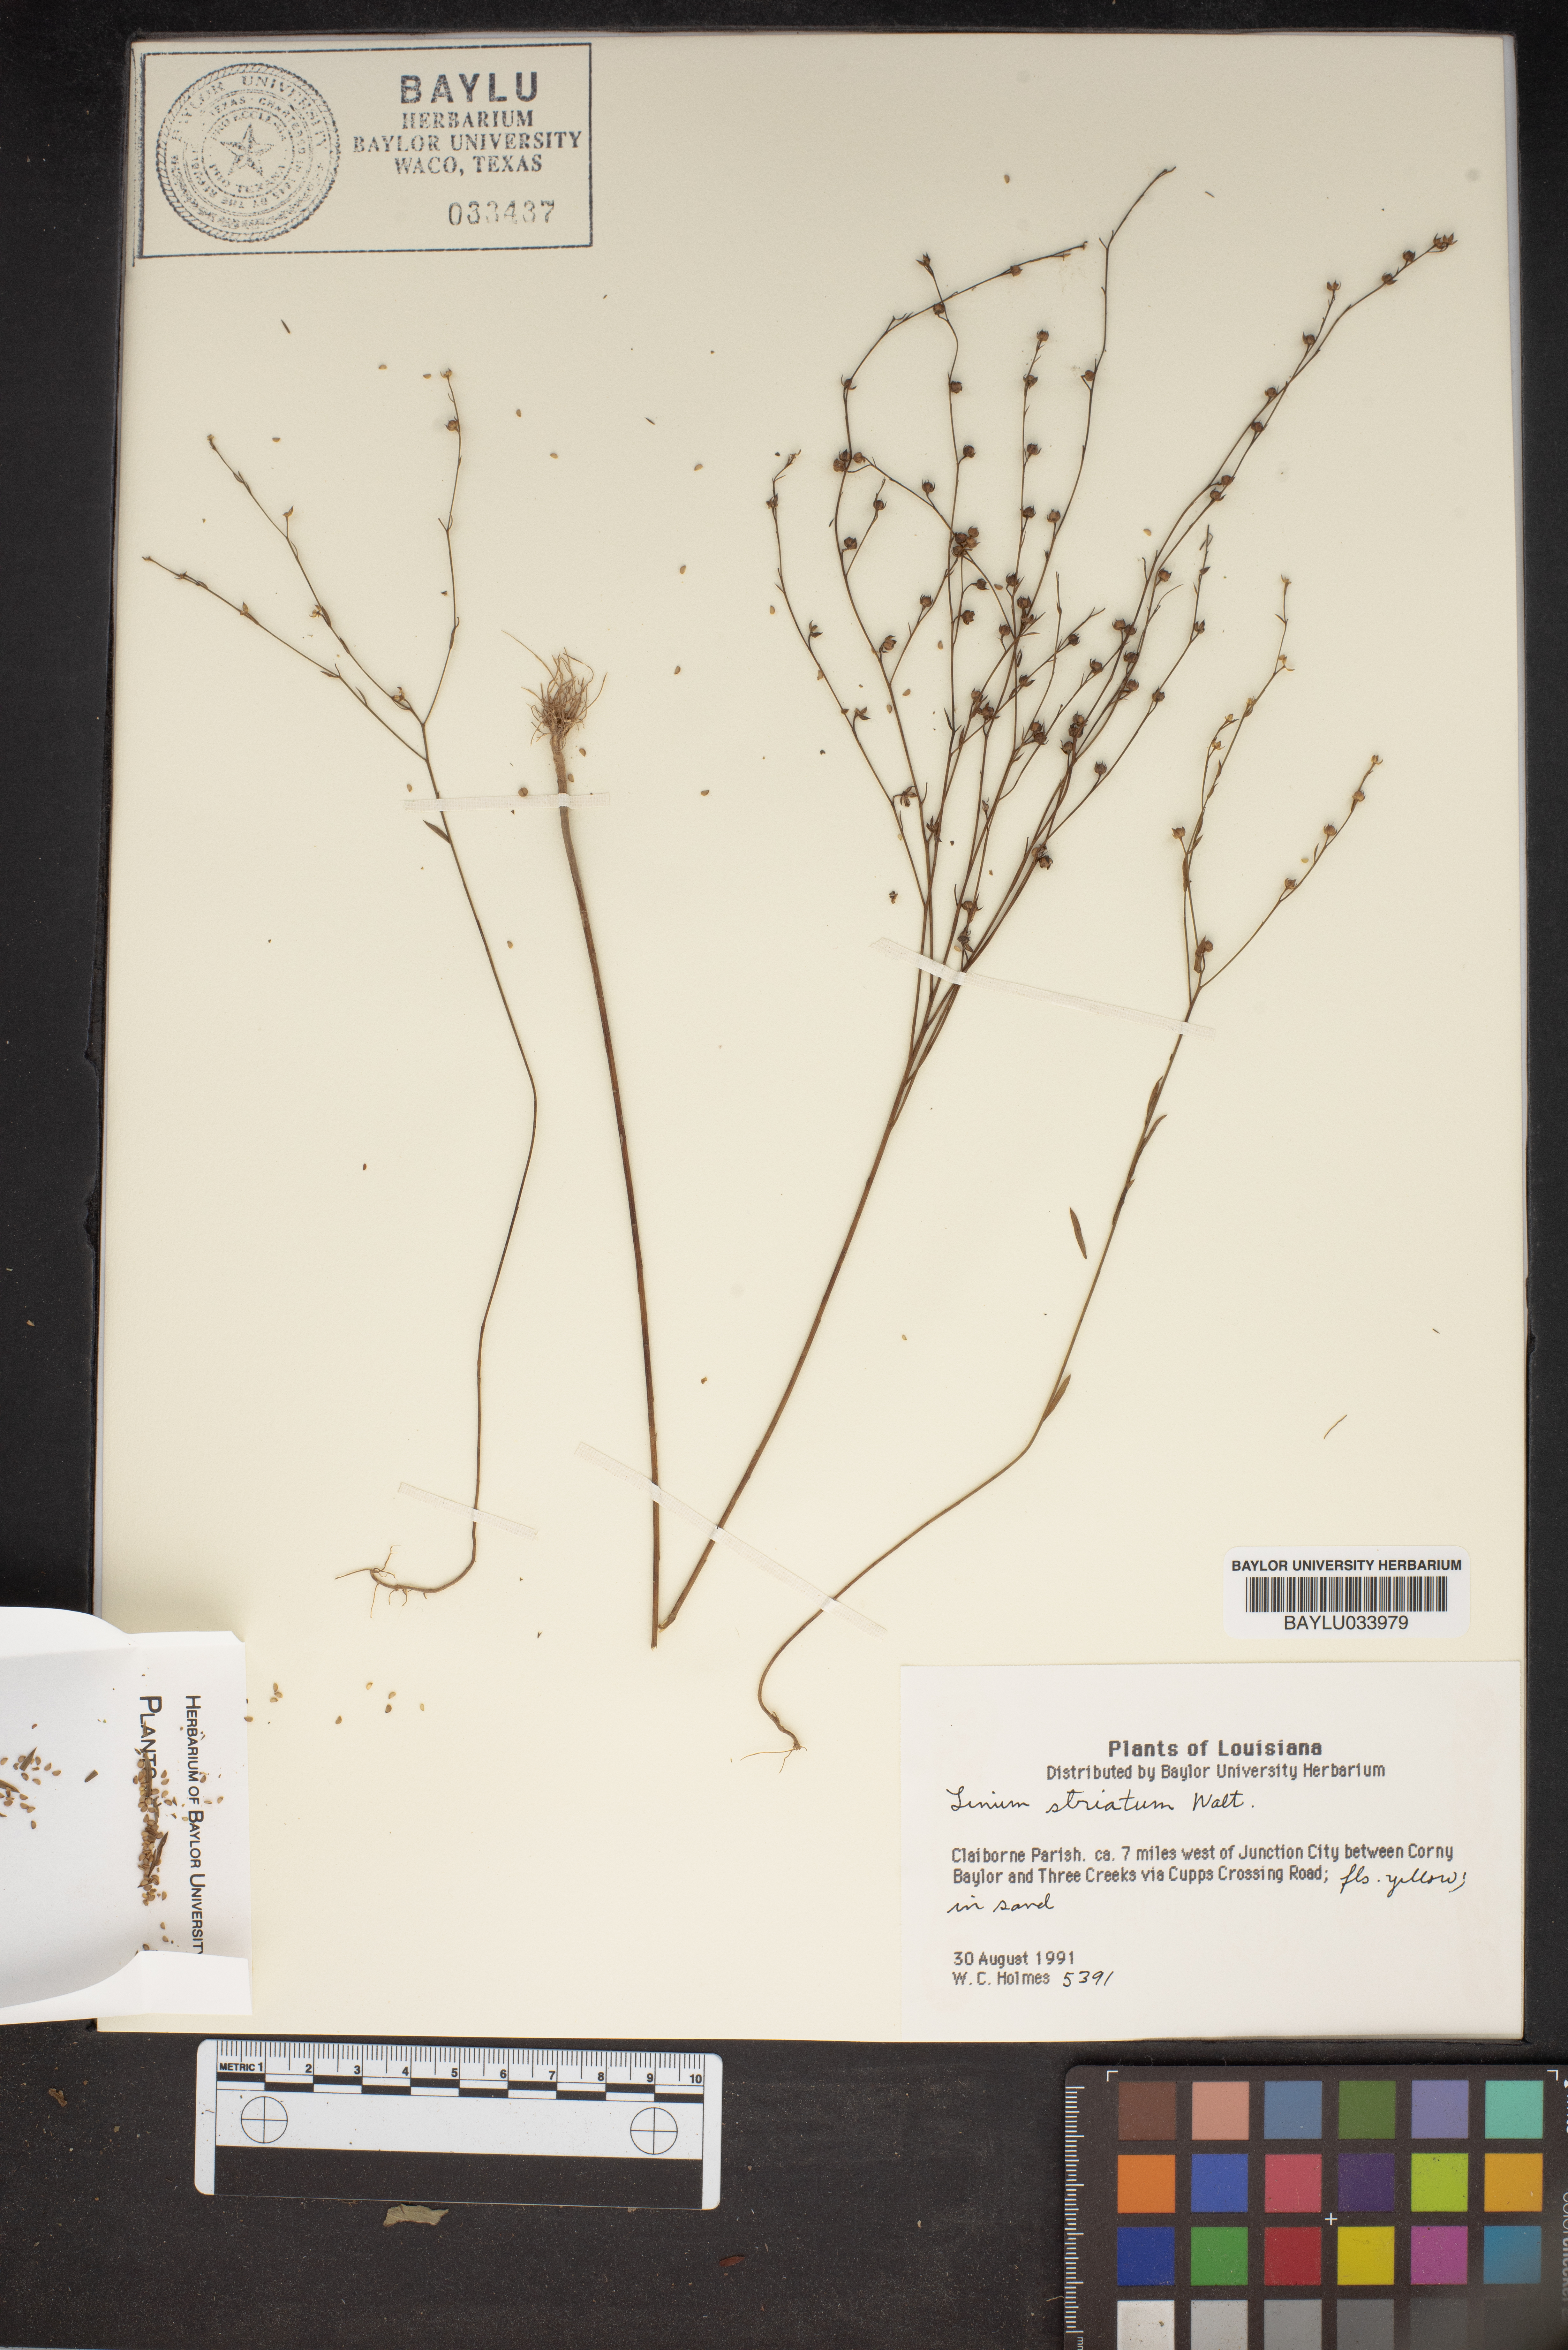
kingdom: Plantae
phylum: Tracheophyta
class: Magnoliopsida
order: Malpighiales
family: Linaceae
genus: Linum
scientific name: Linum striatum
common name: Ridged yellow flax
